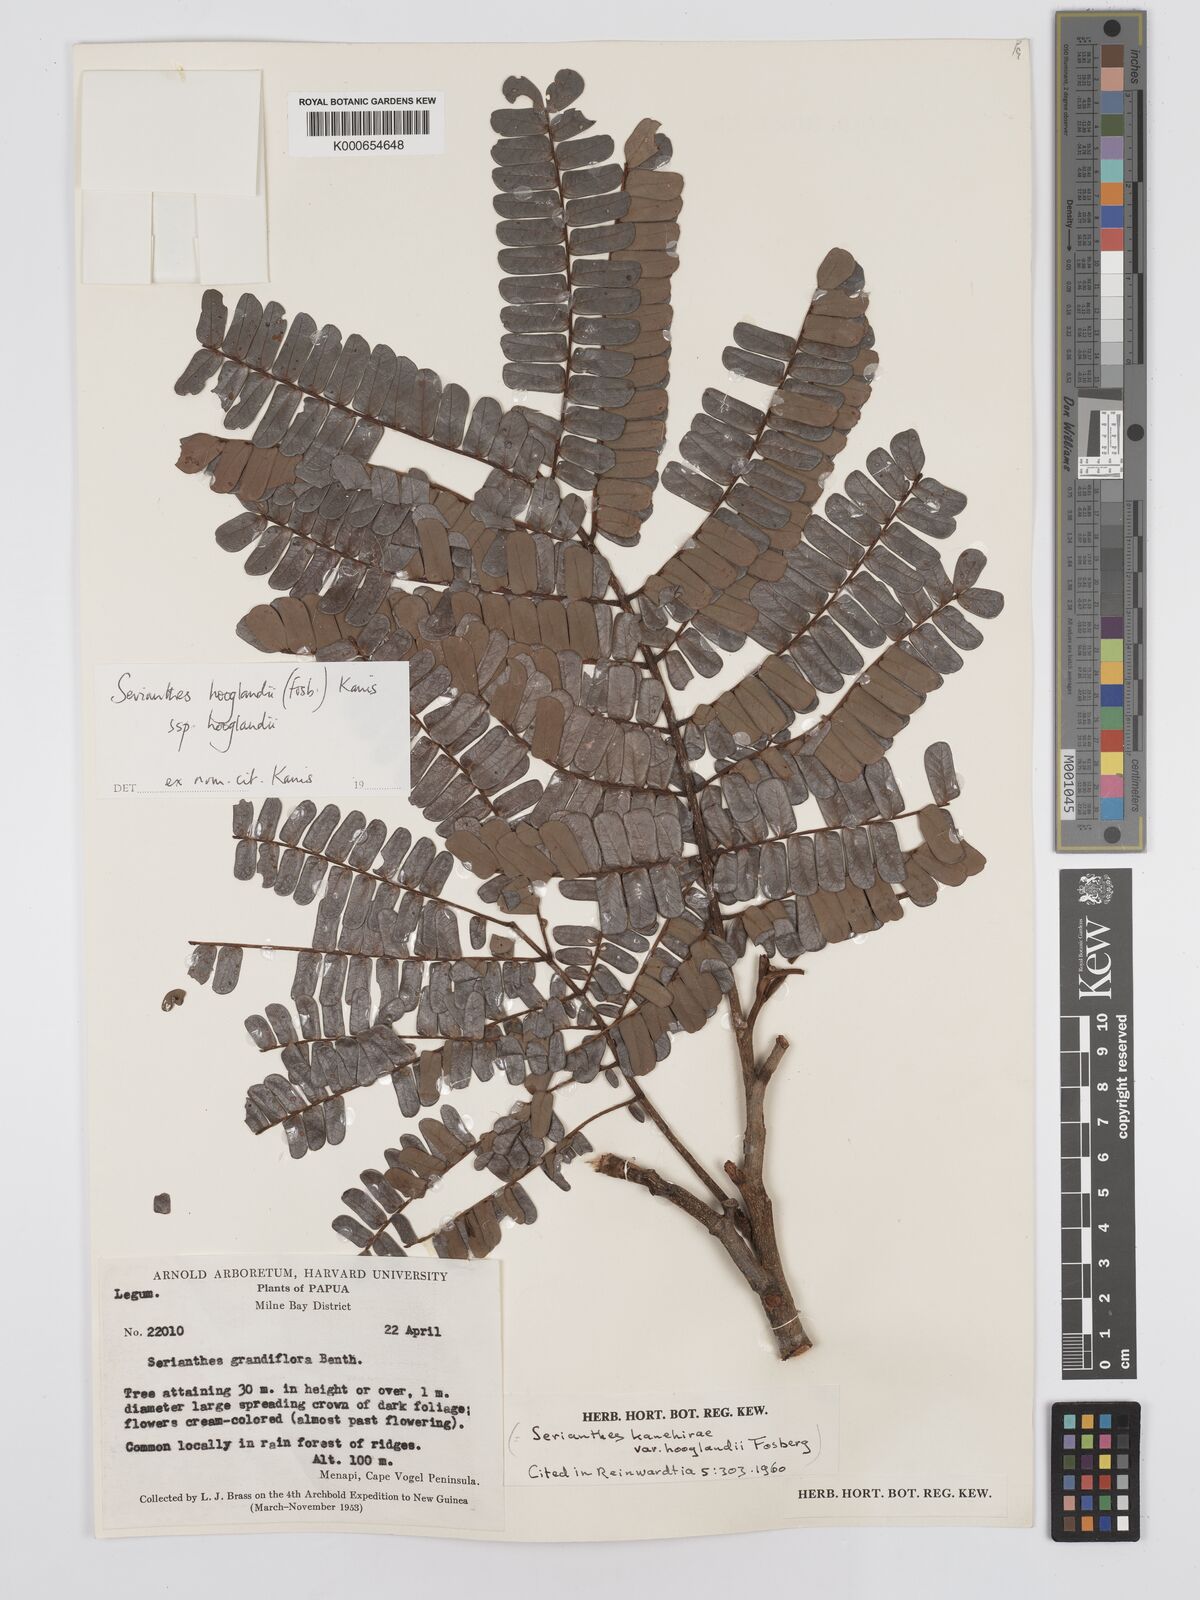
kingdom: Plantae
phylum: Tracheophyta
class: Magnoliopsida
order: Fabales
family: Fabaceae
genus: Serianthes
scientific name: Serianthes hooglandii
